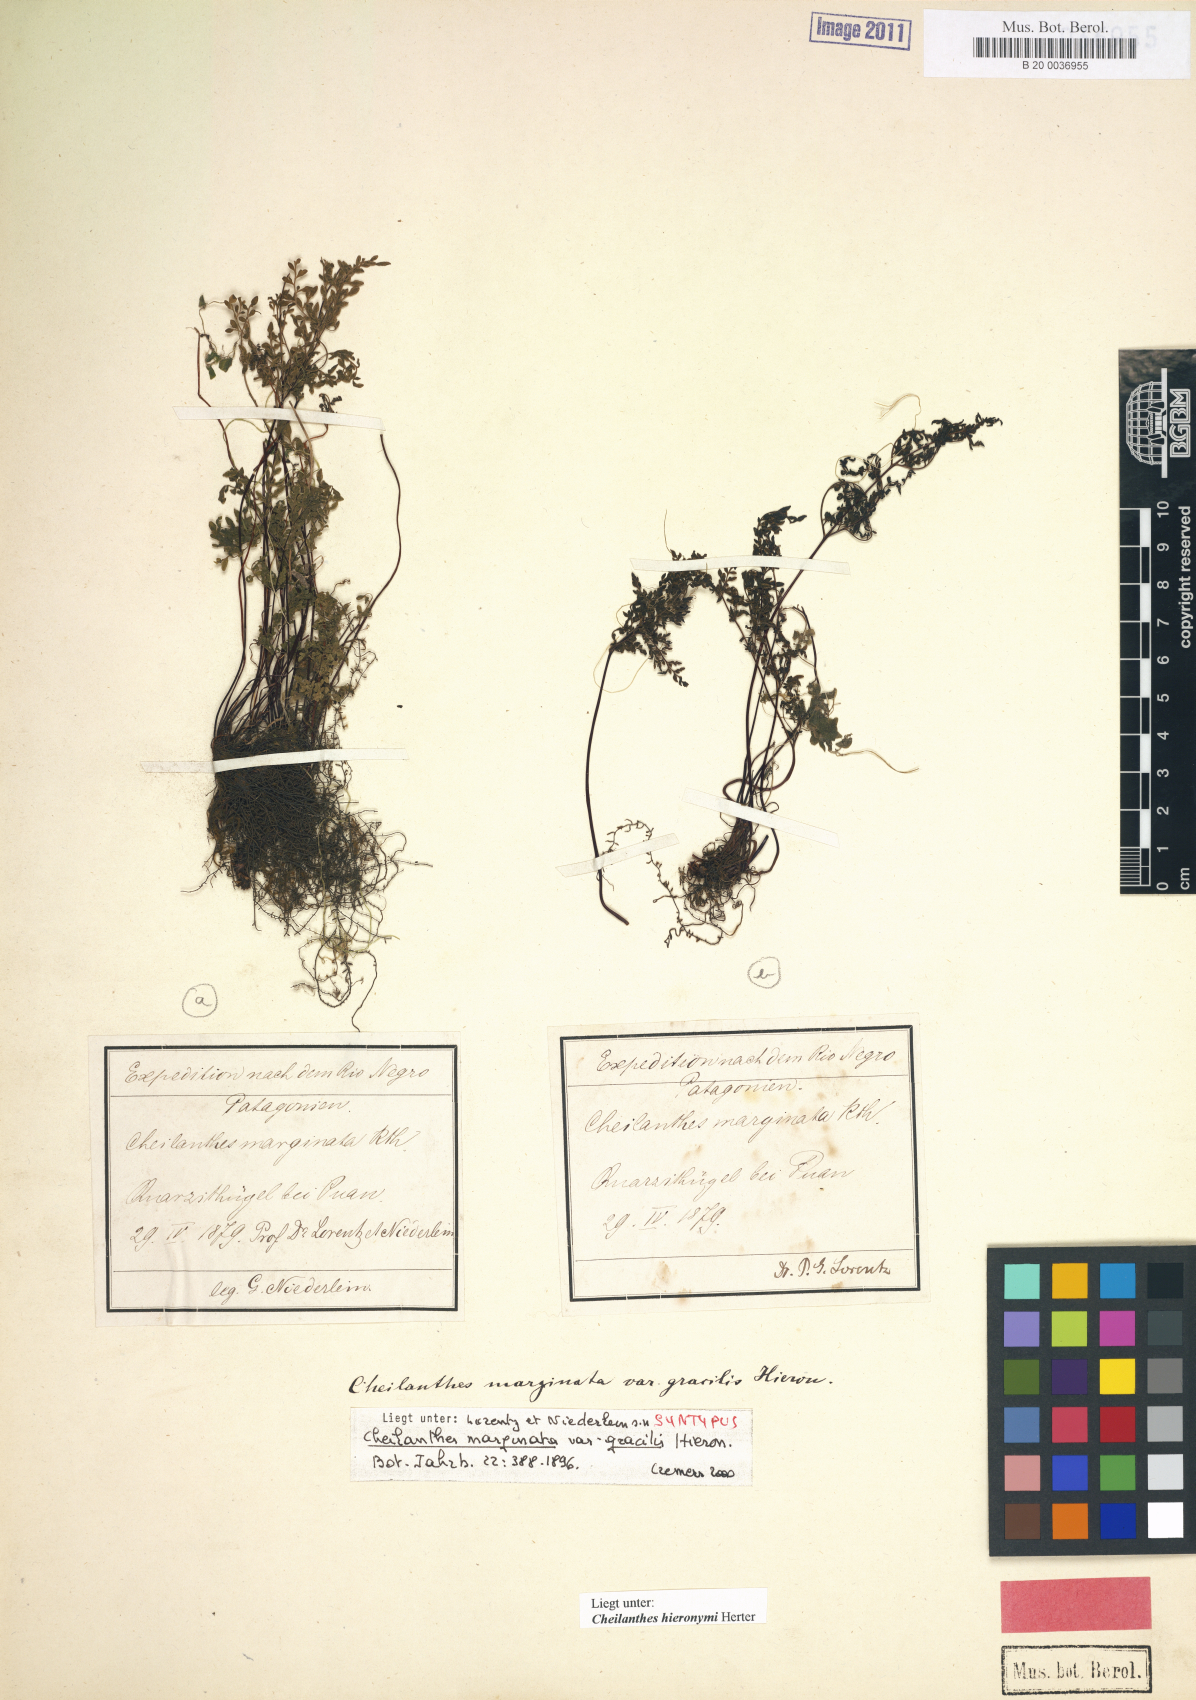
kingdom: Plantae
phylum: Tracheophyta
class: Polypodiopsida
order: Polypodiales
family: Pteridaceae
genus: Cheilanthes
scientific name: Cheilanthes hieronymi
